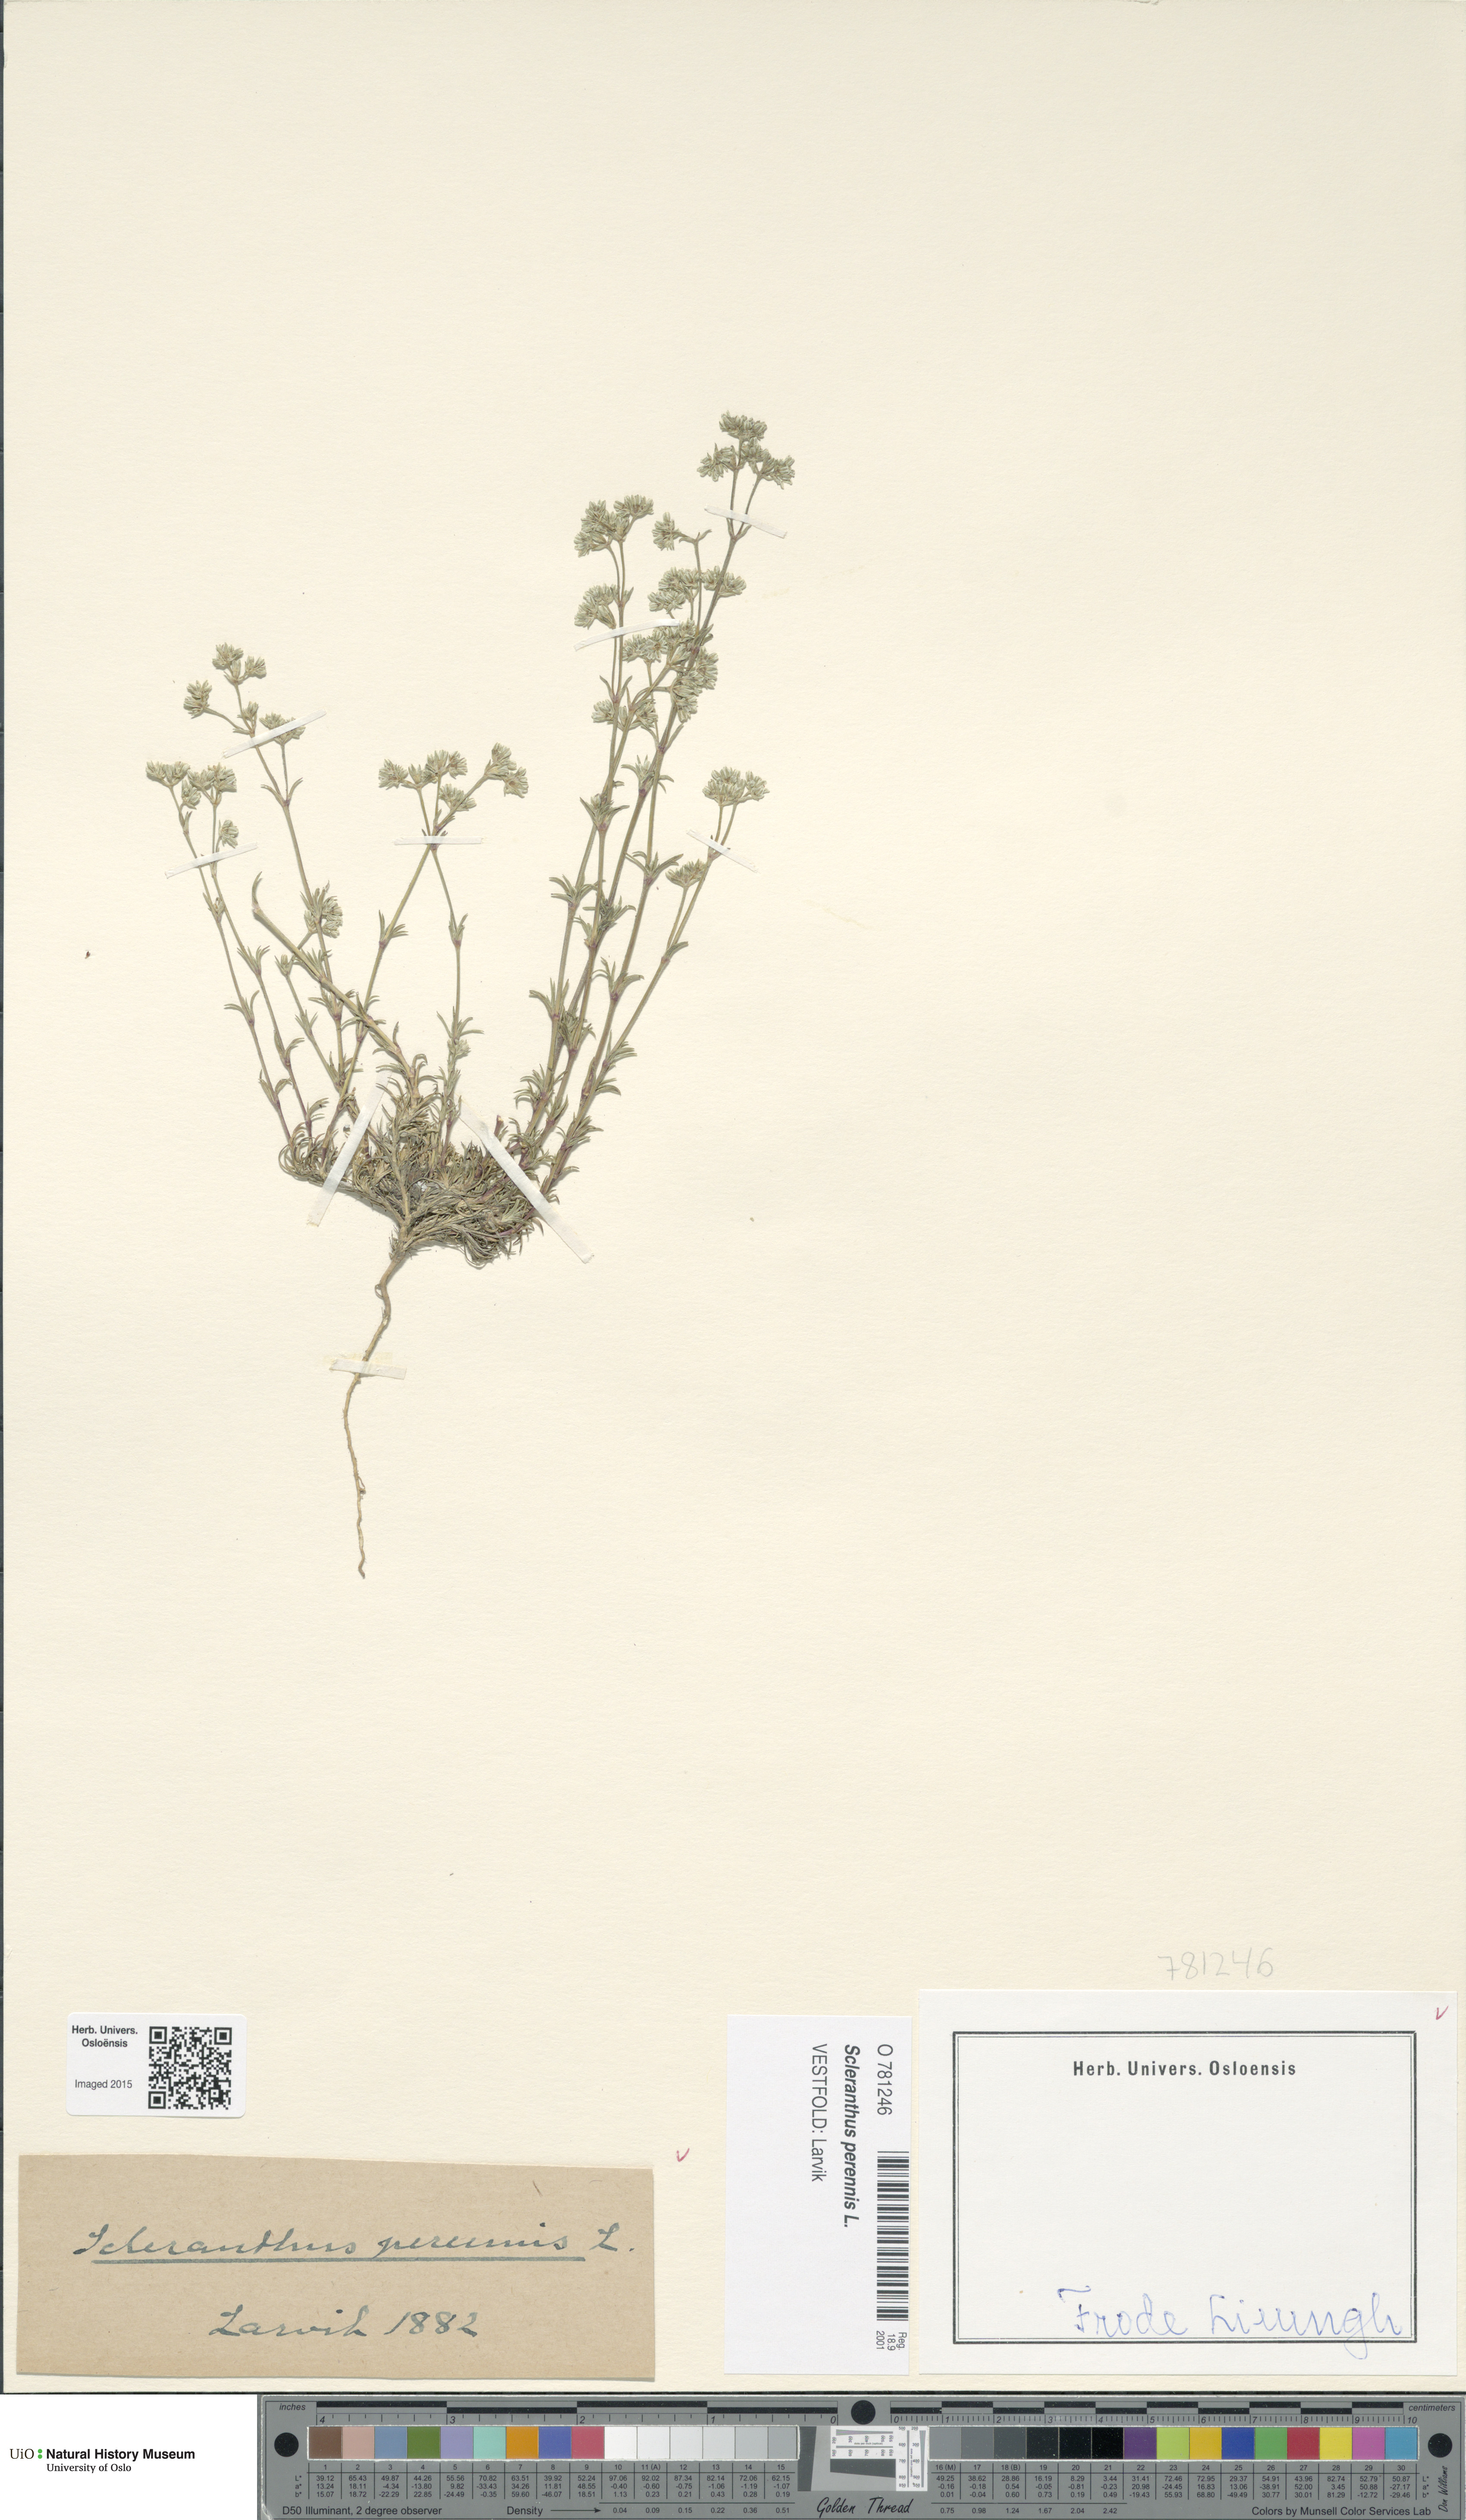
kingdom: Plantae
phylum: Tracheophyta
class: Magnoliopsida
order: Caryophyllales
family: Caryophyllaceae
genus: Scleranthus
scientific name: Scleranthus perennis
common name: Perennial knawel
